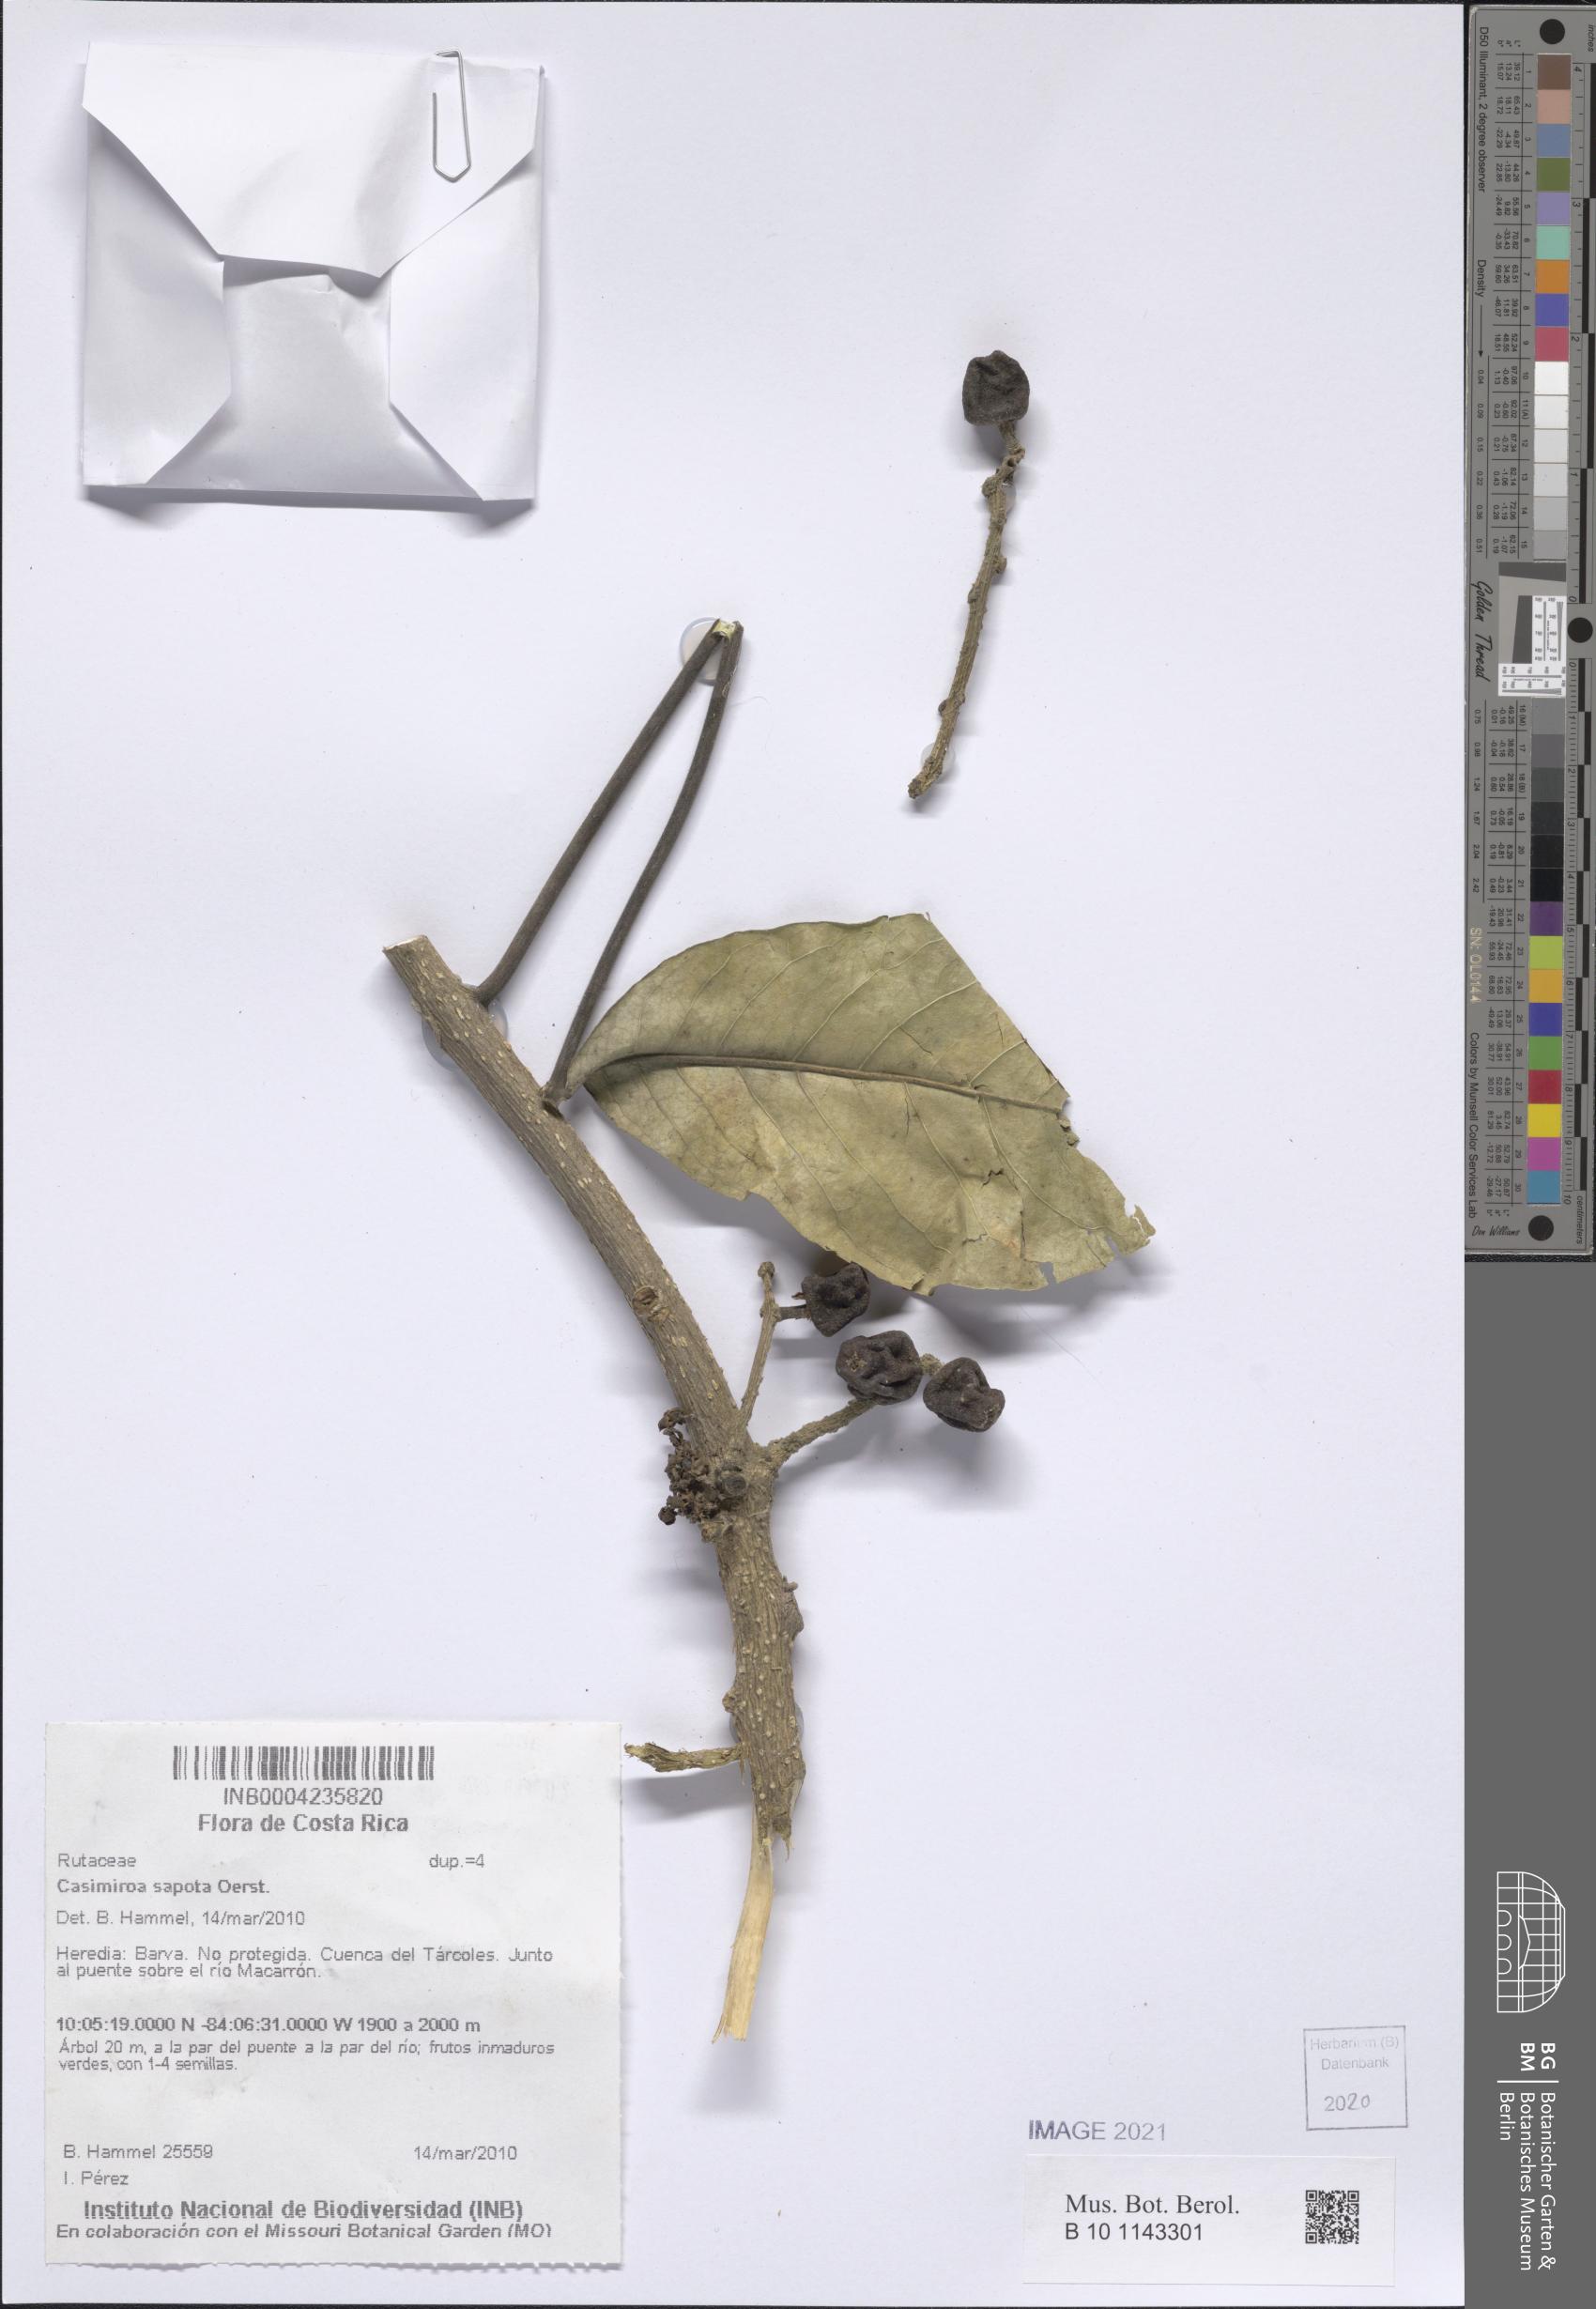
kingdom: Plantae
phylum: Tracheophyta
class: Magnoliopsida
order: Sapindales
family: Rutaceae
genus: Casimiroa
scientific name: Casimiroa sapota
